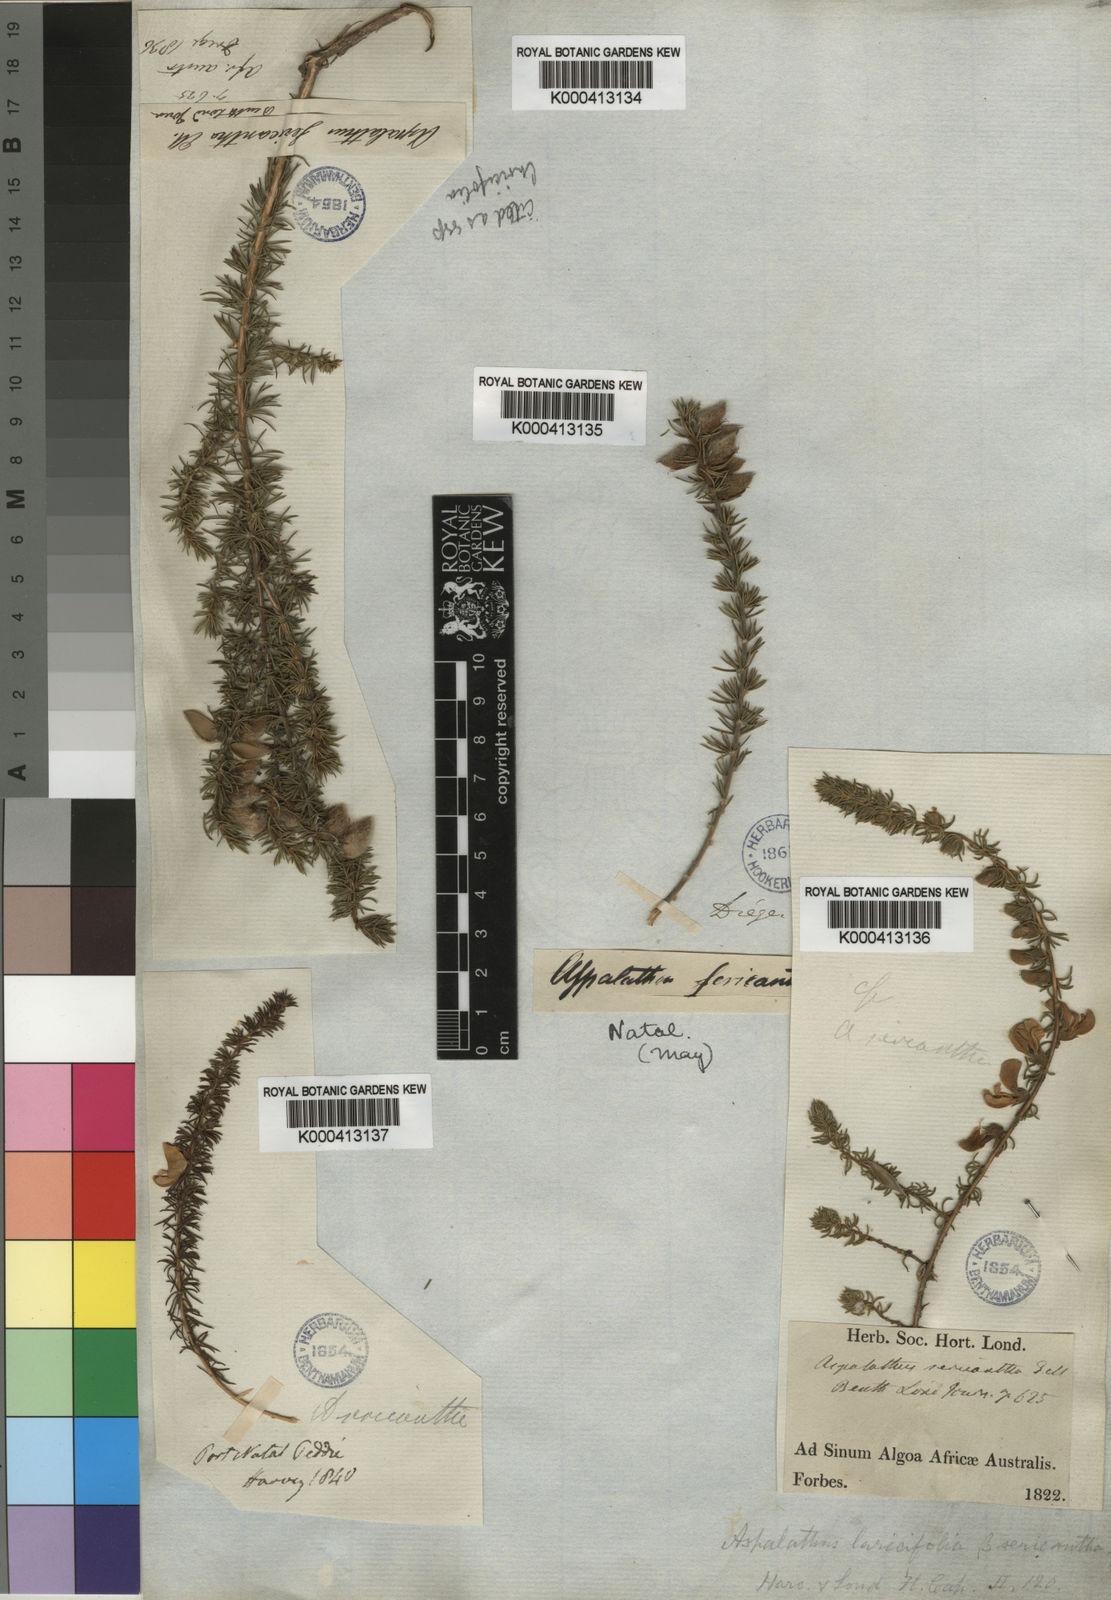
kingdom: Plantae
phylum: Tracheophyta
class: Magnoliopsida
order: Fabales
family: Fabaceae
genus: Aspalathus
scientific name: Aspalathus laricifolia
